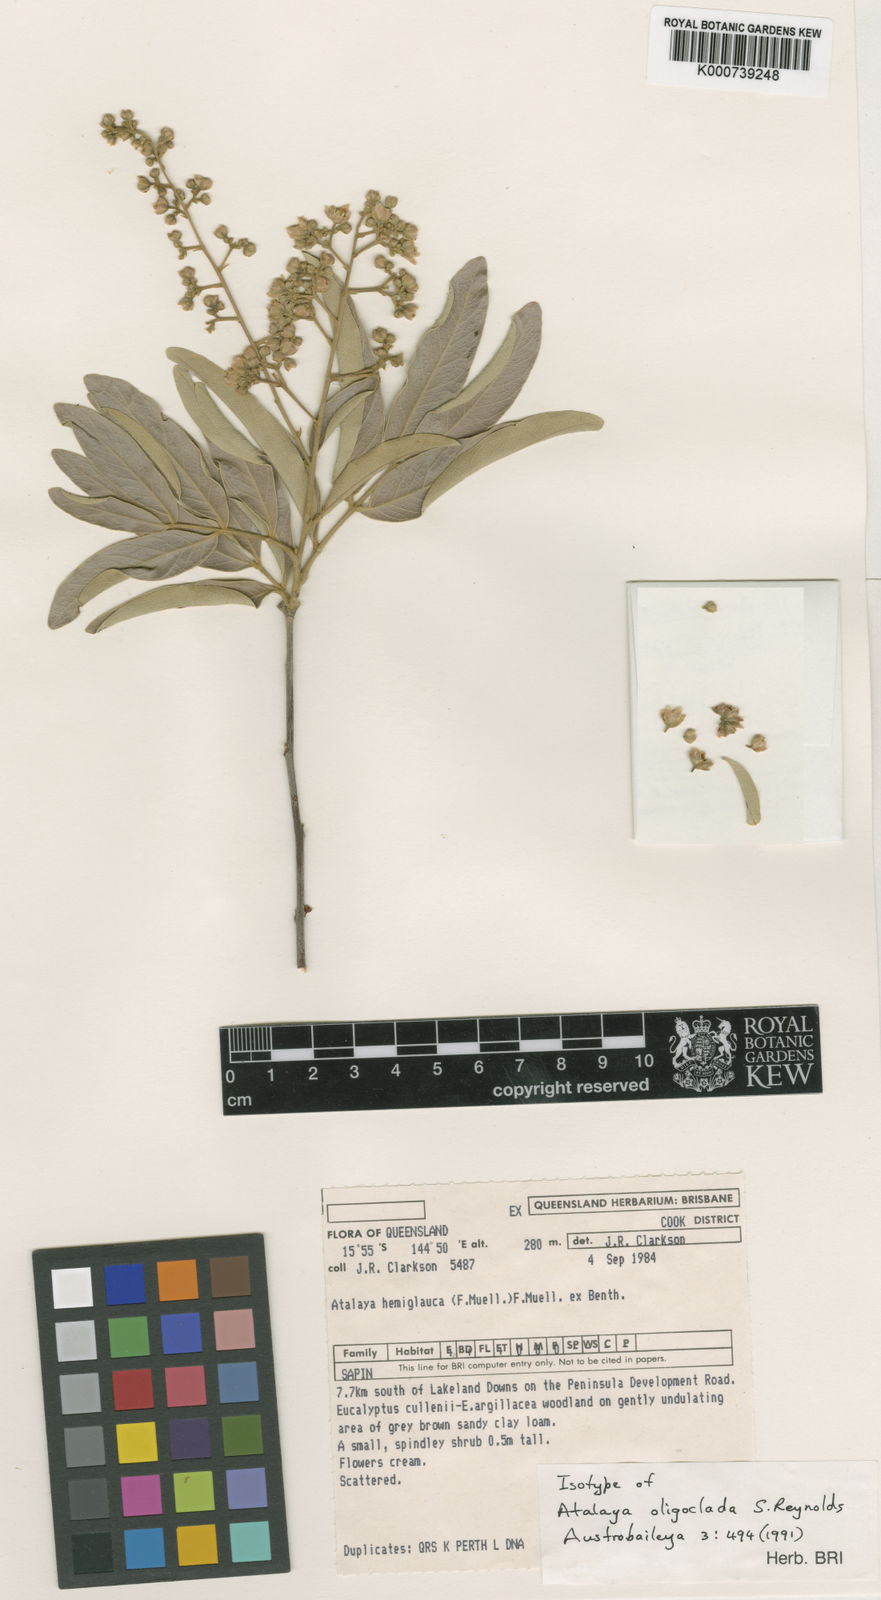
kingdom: Plantae
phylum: Tracheophyta
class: Magnoliopsida
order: Sapindales
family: Sapindaceae
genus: Atalaya
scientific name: Atalaya oligoclada
